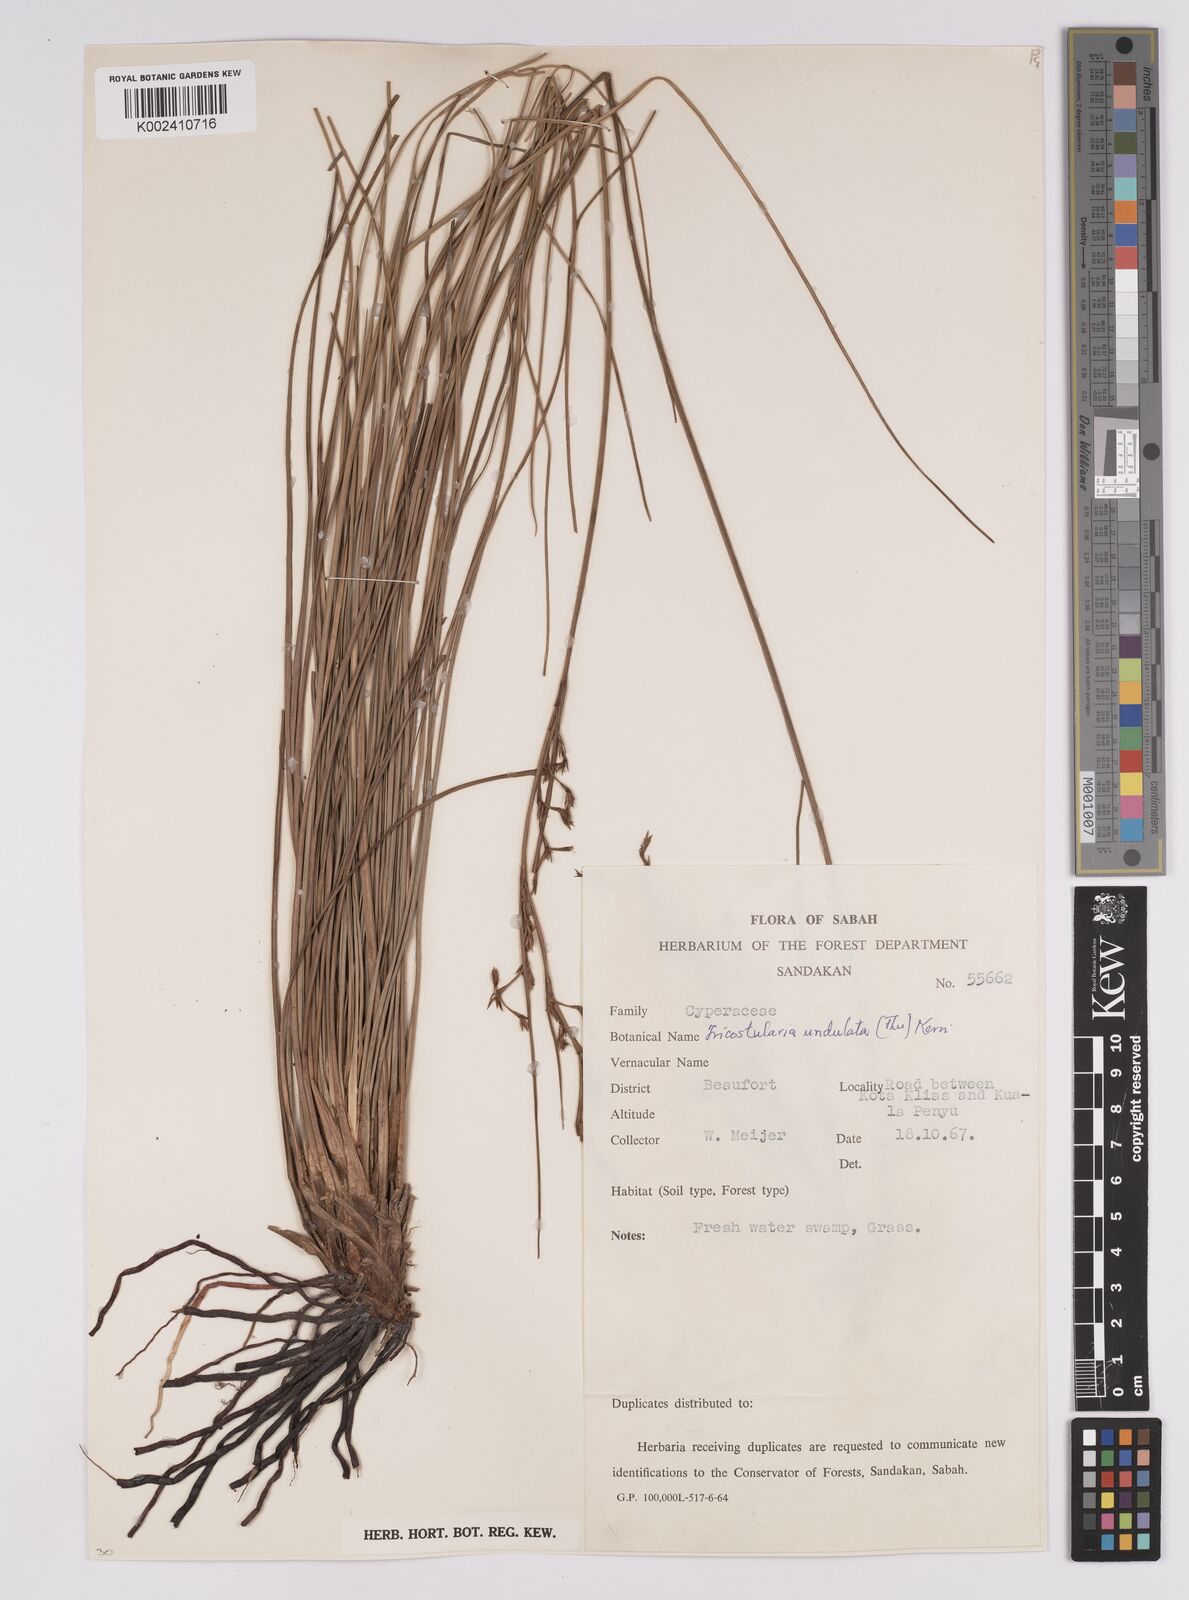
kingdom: Plantae
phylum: Tracheophyta
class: Liliopsida
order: Poales
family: Cyperaceae
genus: Anthelepis
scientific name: Anthelepis undulata
